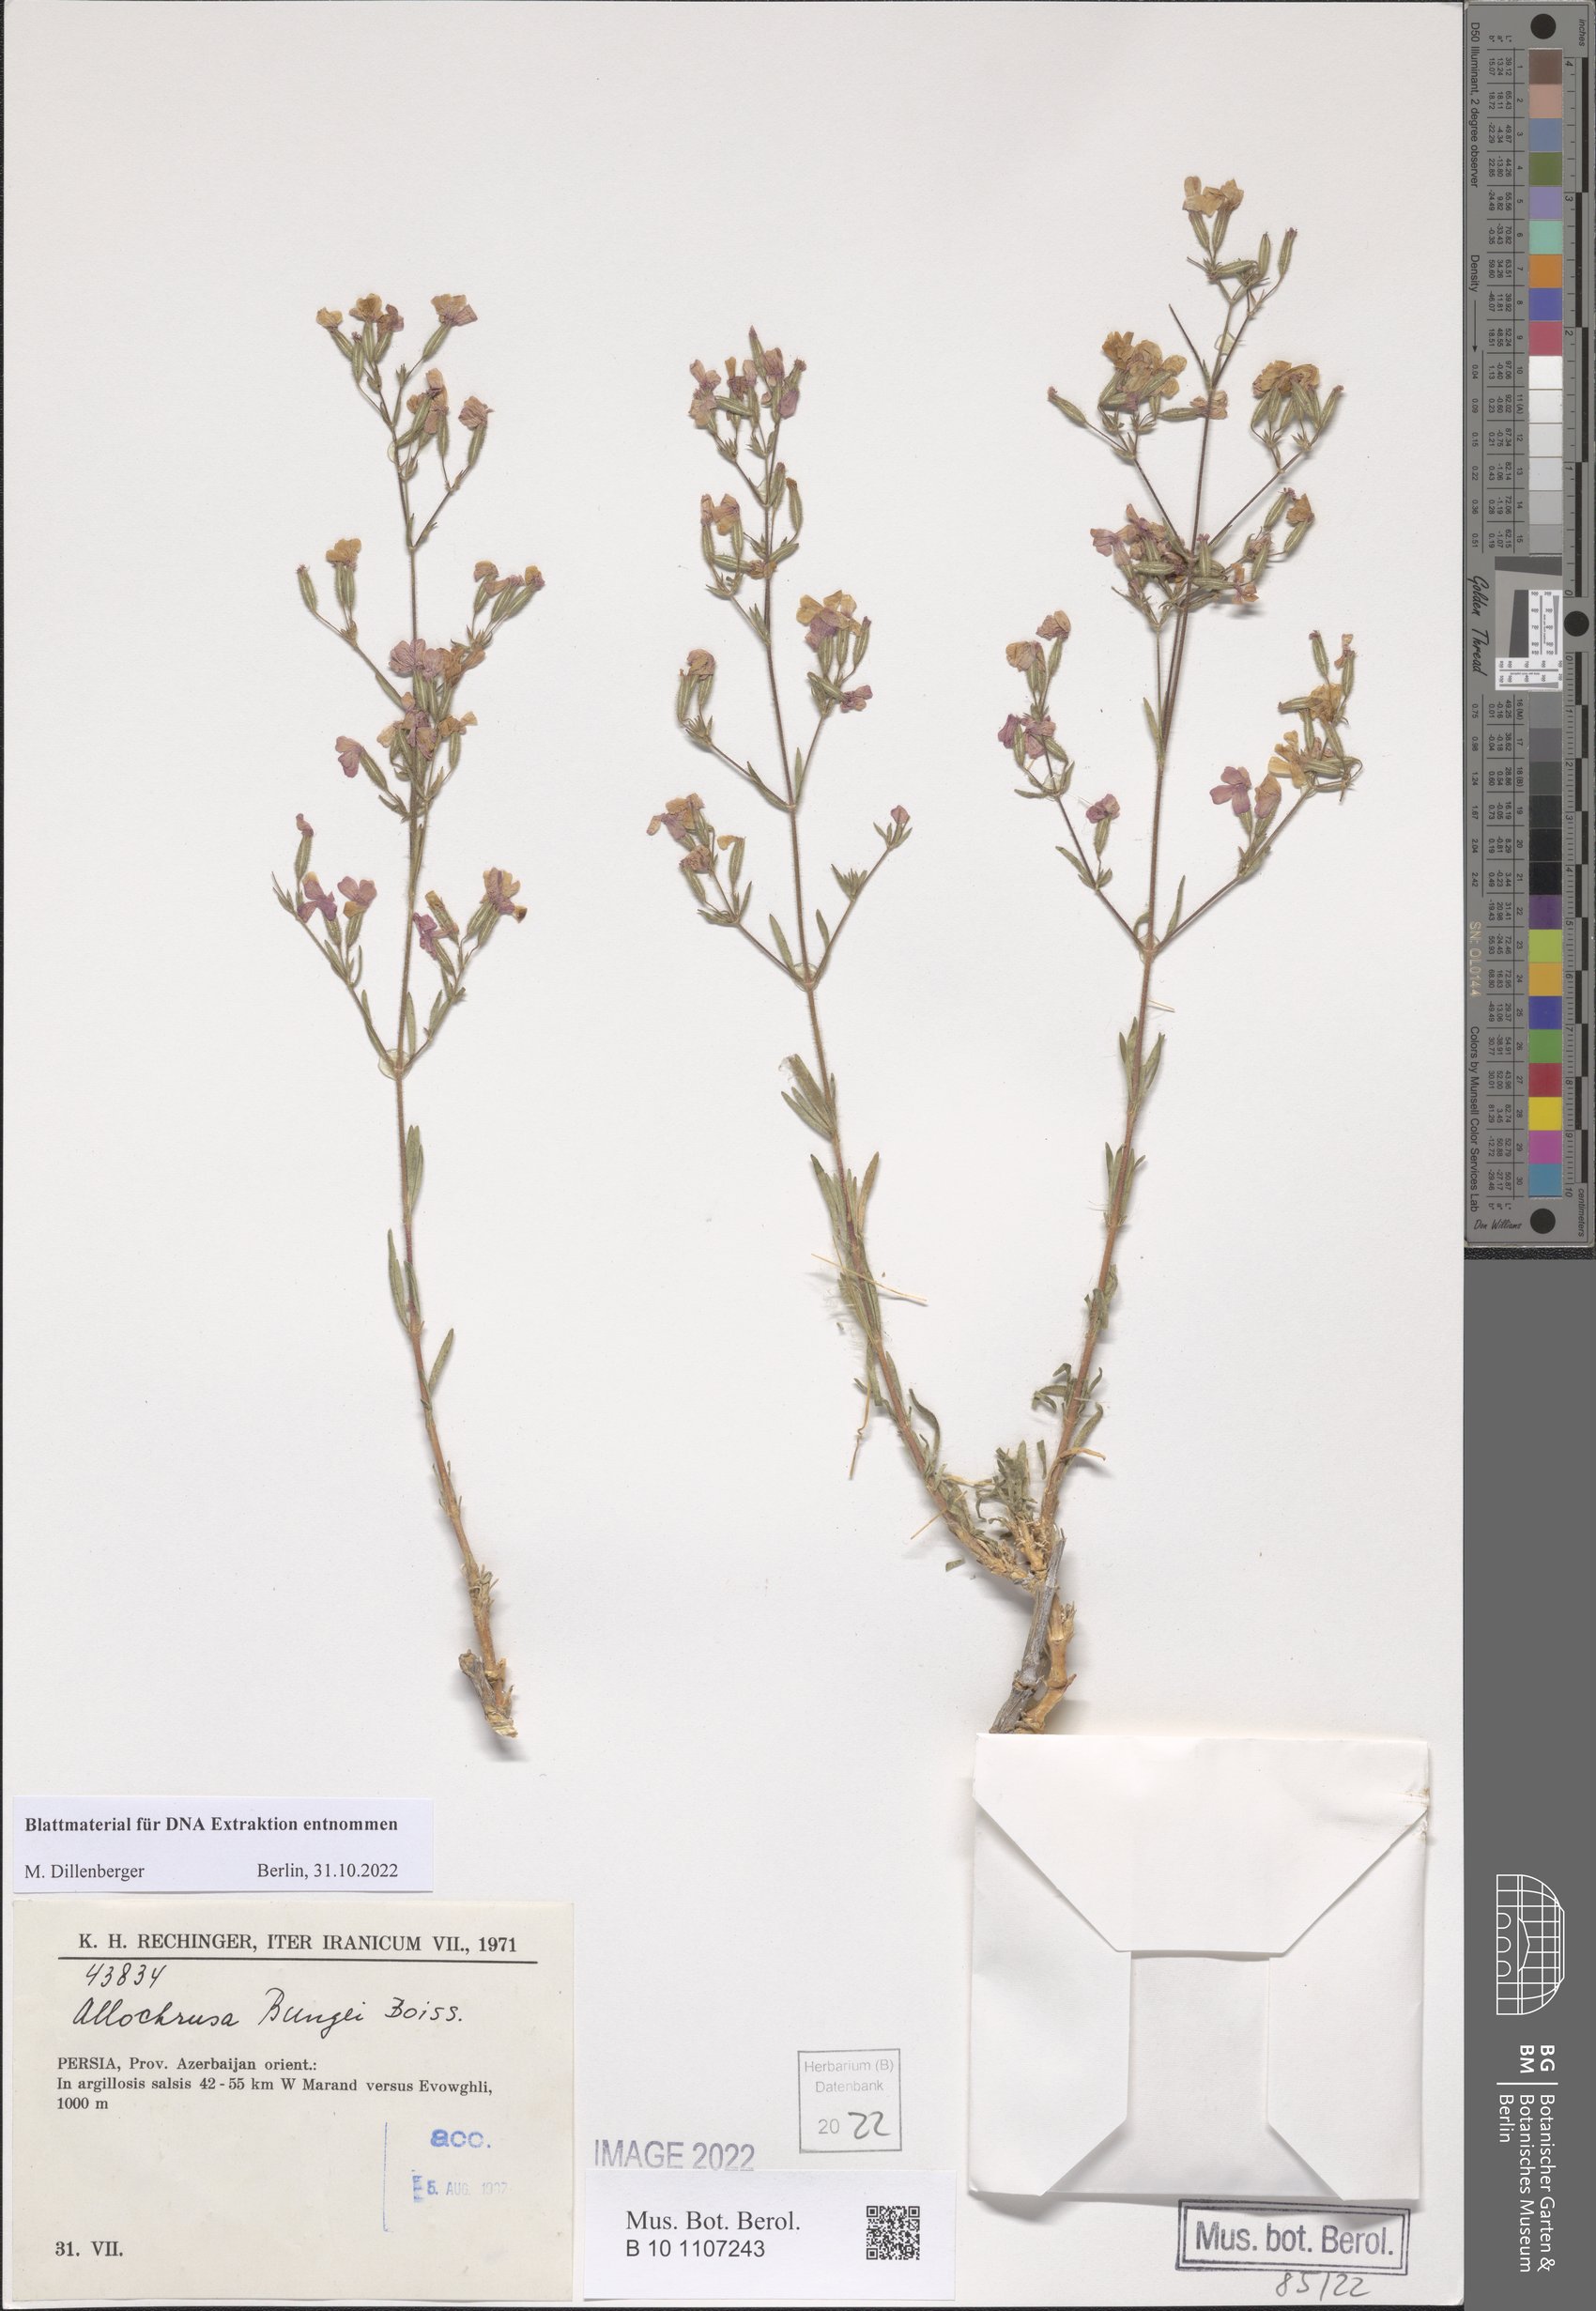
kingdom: Plantae
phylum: Tracheophyta
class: Magnoliopsida
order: Caryophyllales
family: Caryophyllaceae
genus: Acanthophyllum
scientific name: Acanthophyllum bungei
